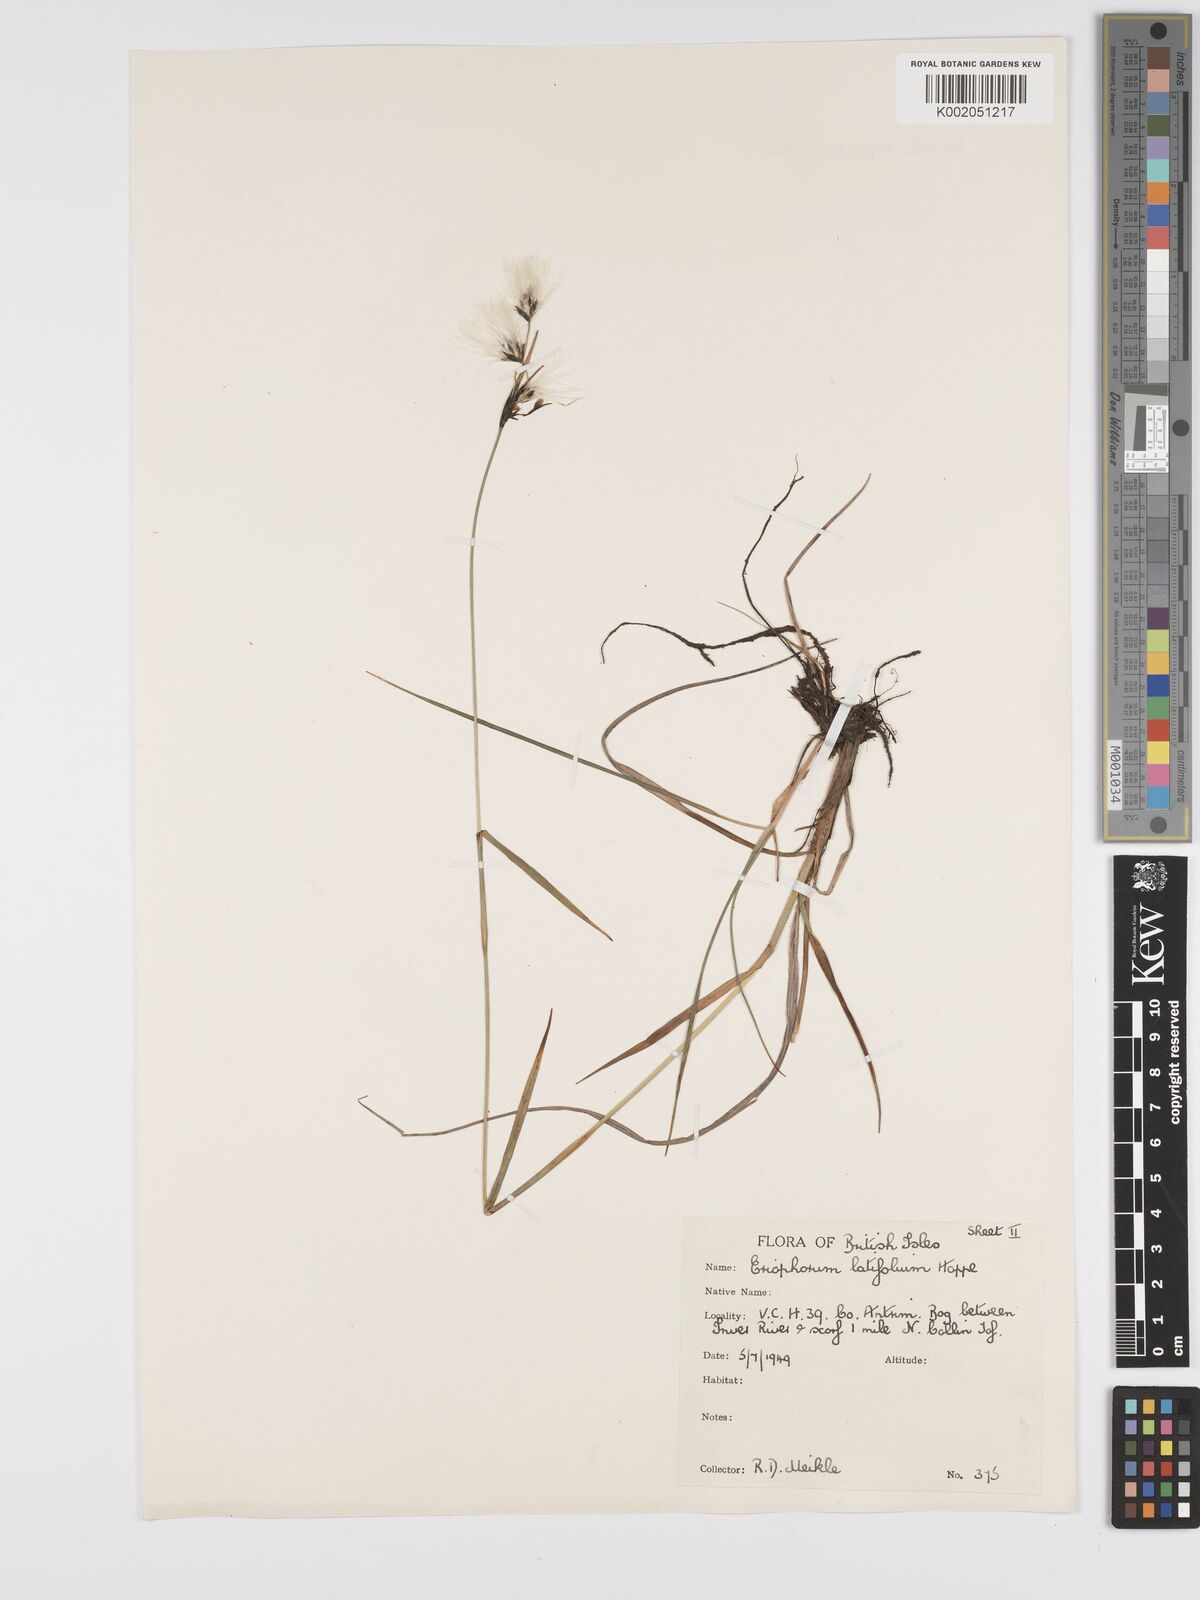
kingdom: Plantae
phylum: Tracheophyta
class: Liliopsida
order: Poales
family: Cyperaceae
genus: Eriophorum
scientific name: Eriophorum latifolium
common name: Broad-leaved cottongrass
